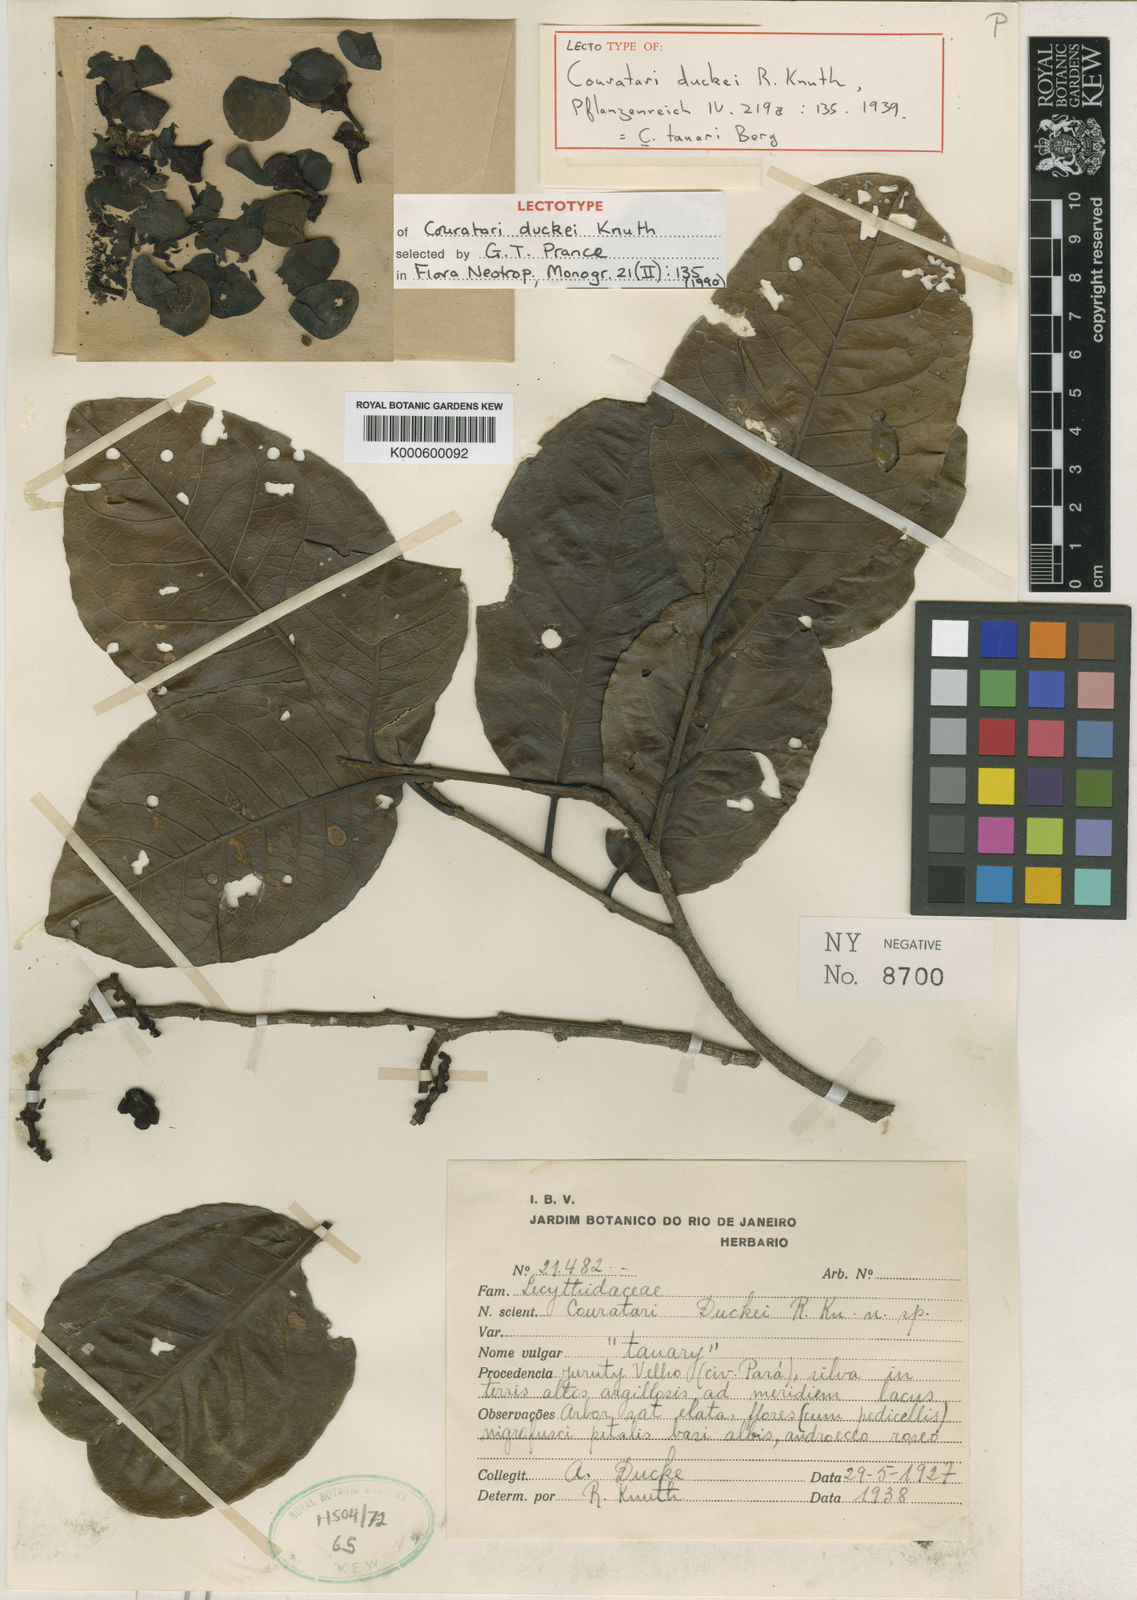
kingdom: Plantae
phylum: Tracheophyta
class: Magnoliopsida
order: Ericales
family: Lecythidaceae
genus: Couratari
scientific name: Couratari tauari
